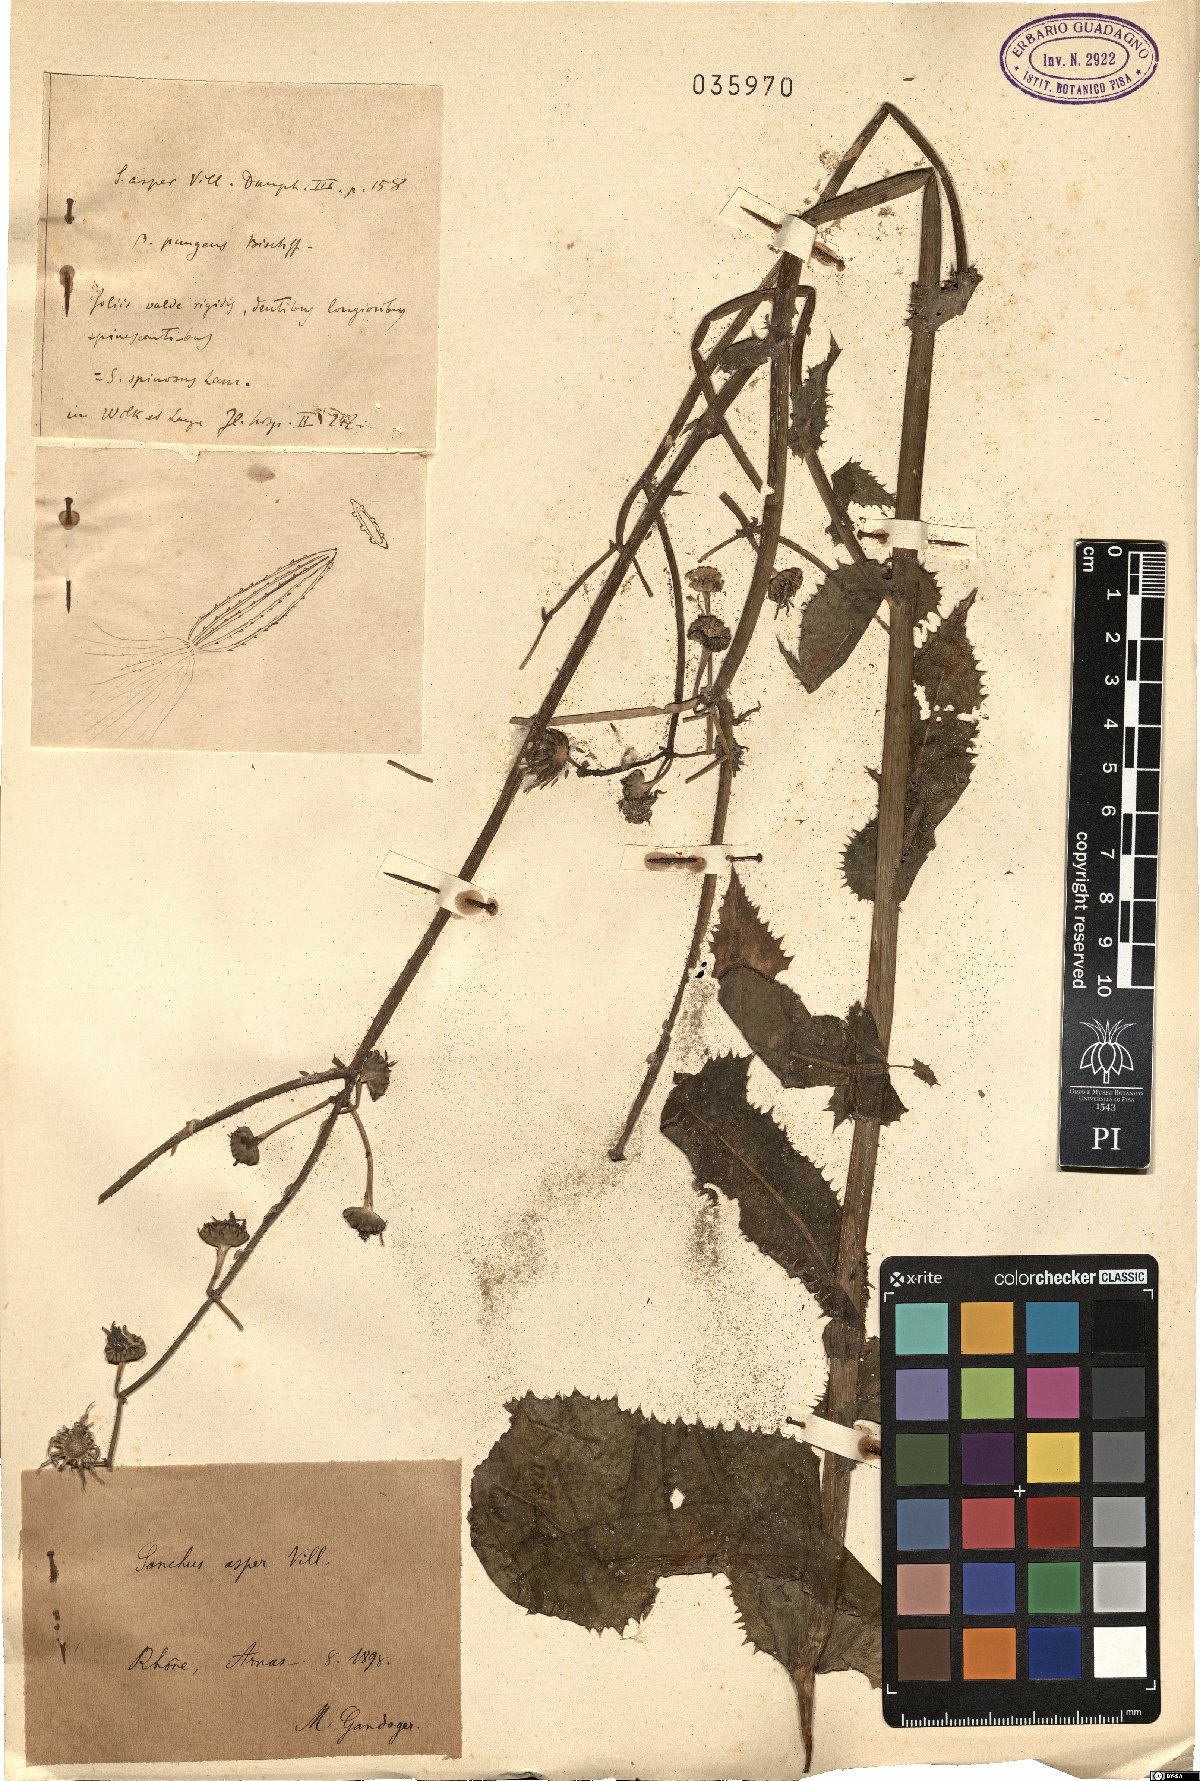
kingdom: Plantae
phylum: Tracheophyta
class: Magnoliopsida
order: Asterales
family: Asteraceae
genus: Sonchus
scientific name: Sonchus asper
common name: Prickly sow-thistle
